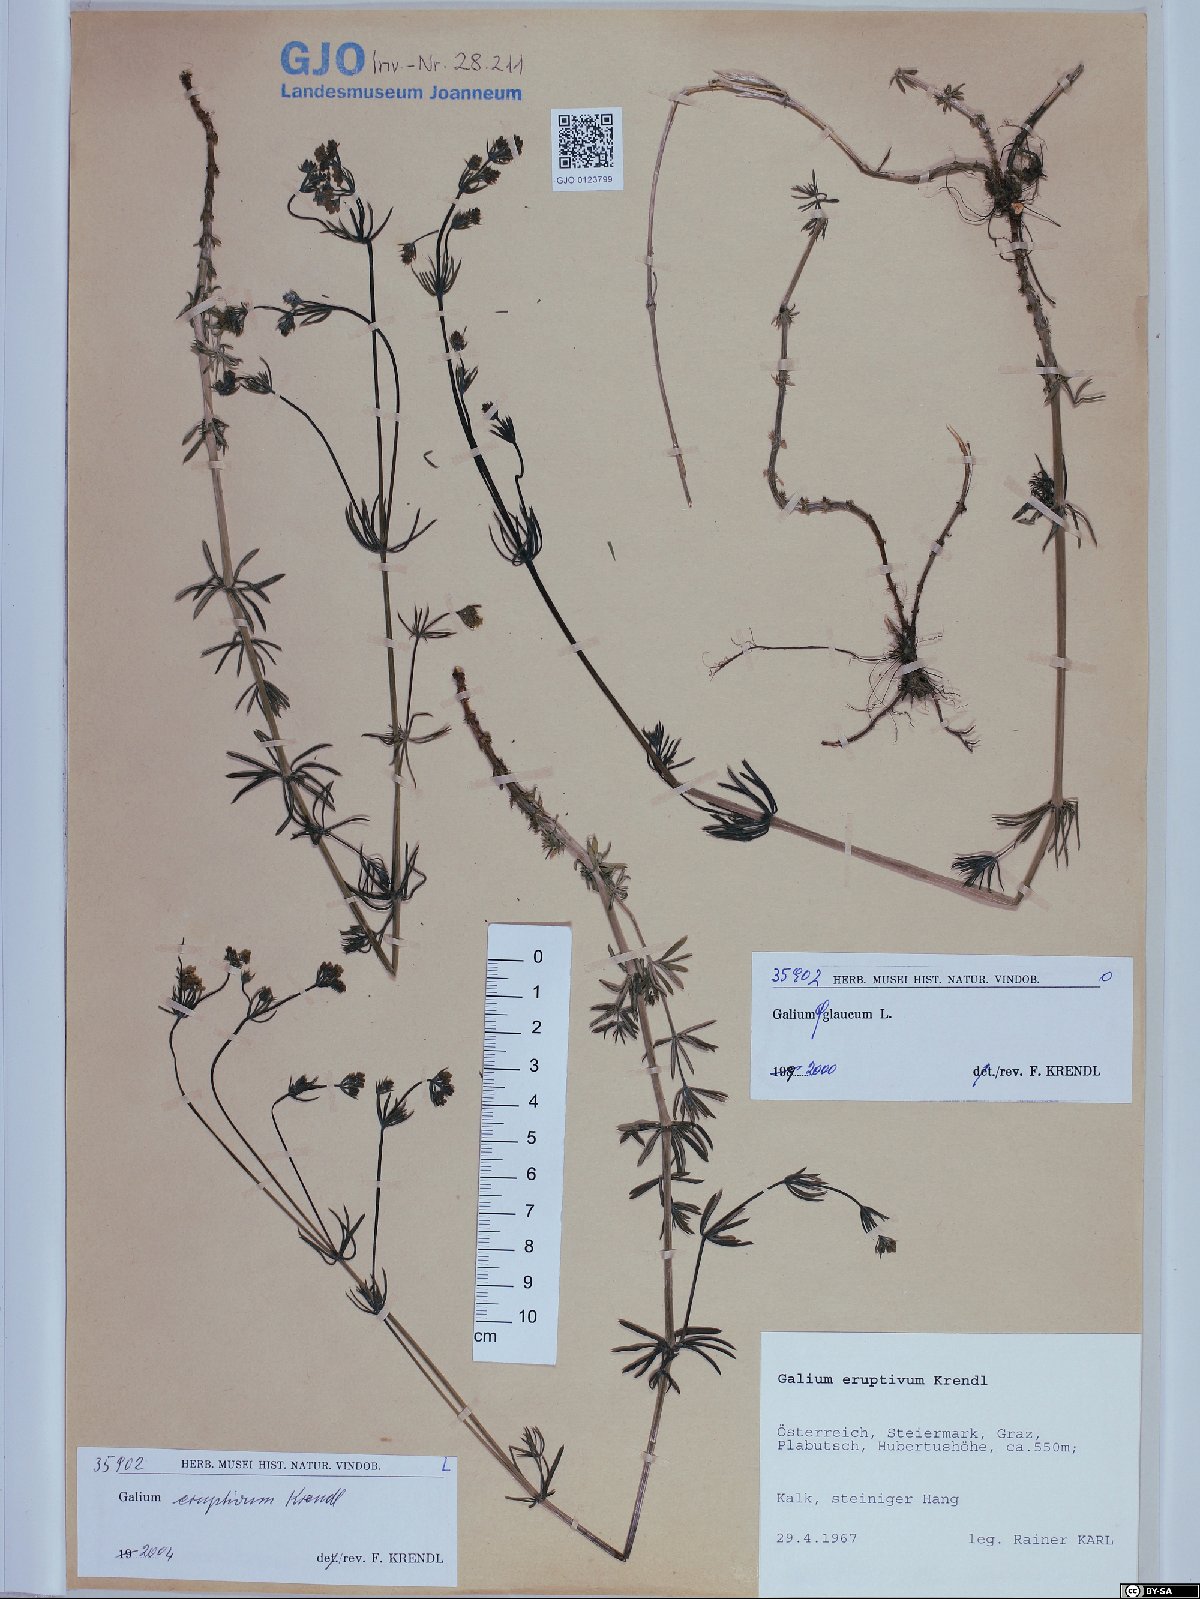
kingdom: Plantae
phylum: Tracheophyta
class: Magnoliopsida
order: Gentianales
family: Rubiaceae
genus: Galium
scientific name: Galium eruptivum
